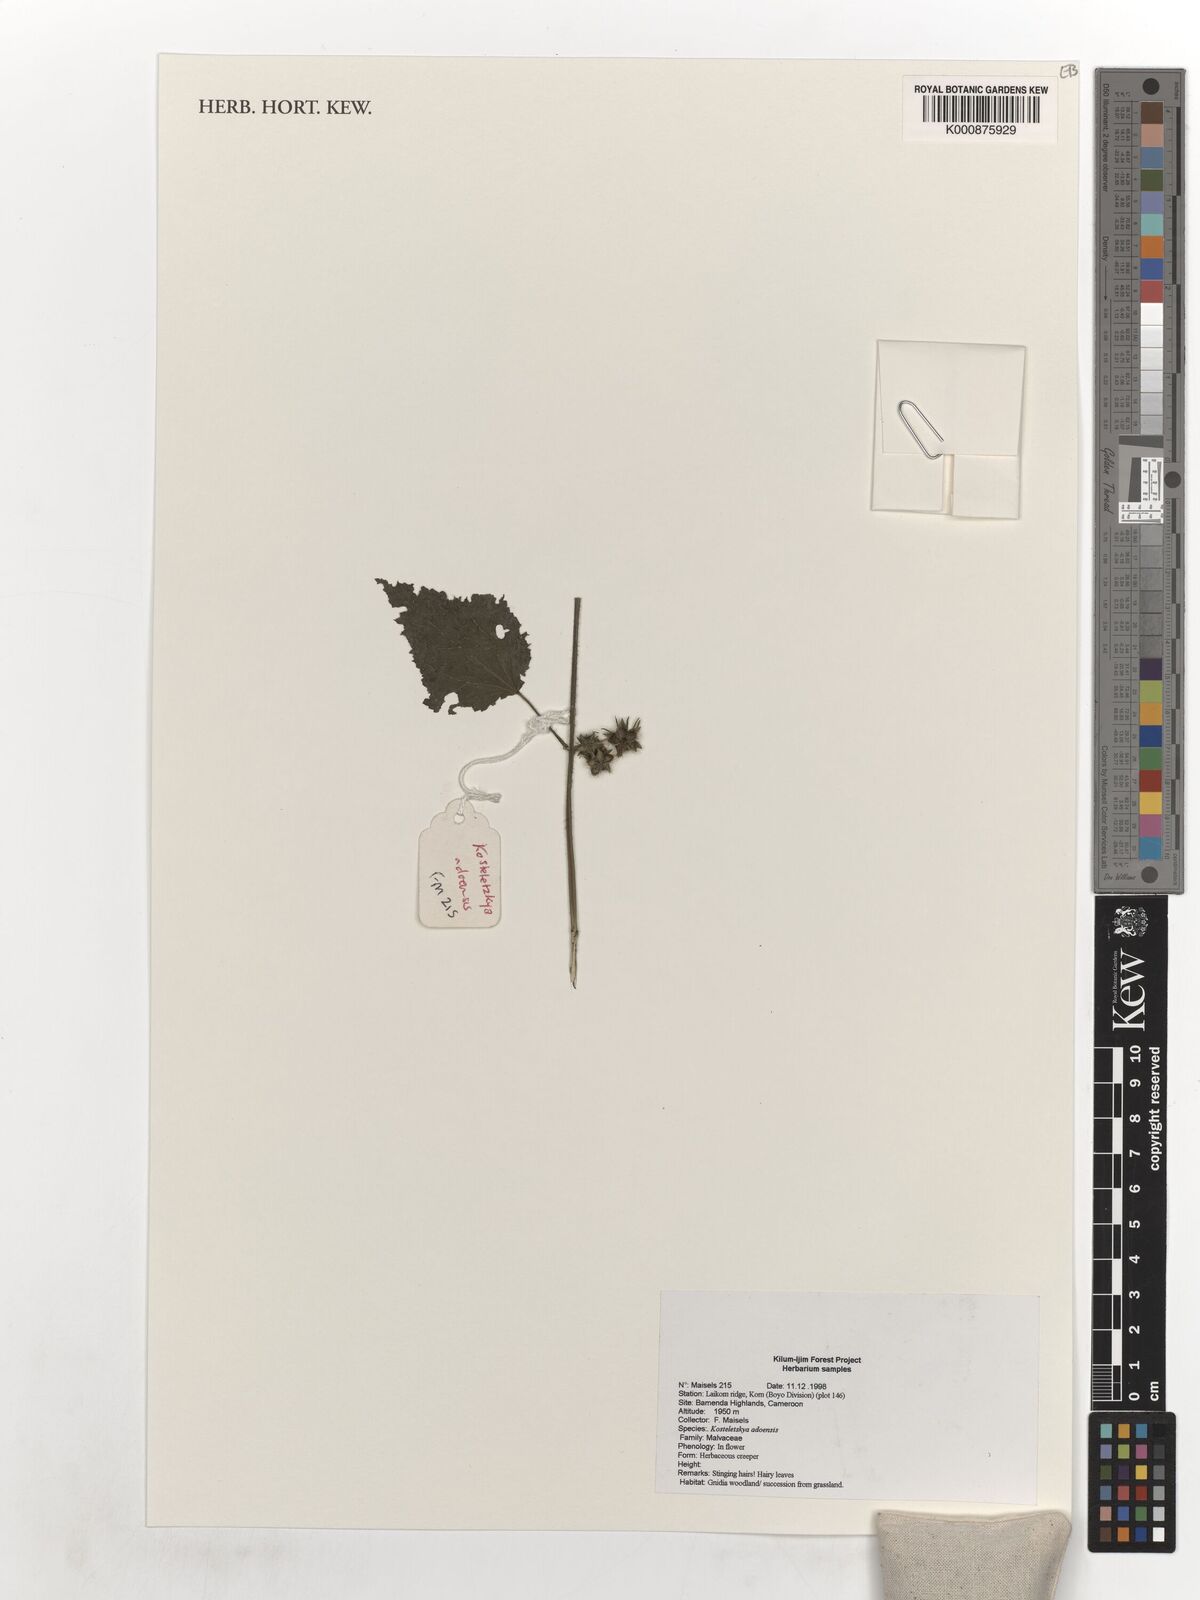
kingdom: Plantae
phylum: Tracheophyta
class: Magnoliopsida
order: Malvales
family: Malvaceae
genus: Kosteletzkya
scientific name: Kosteletzkya adoensis
